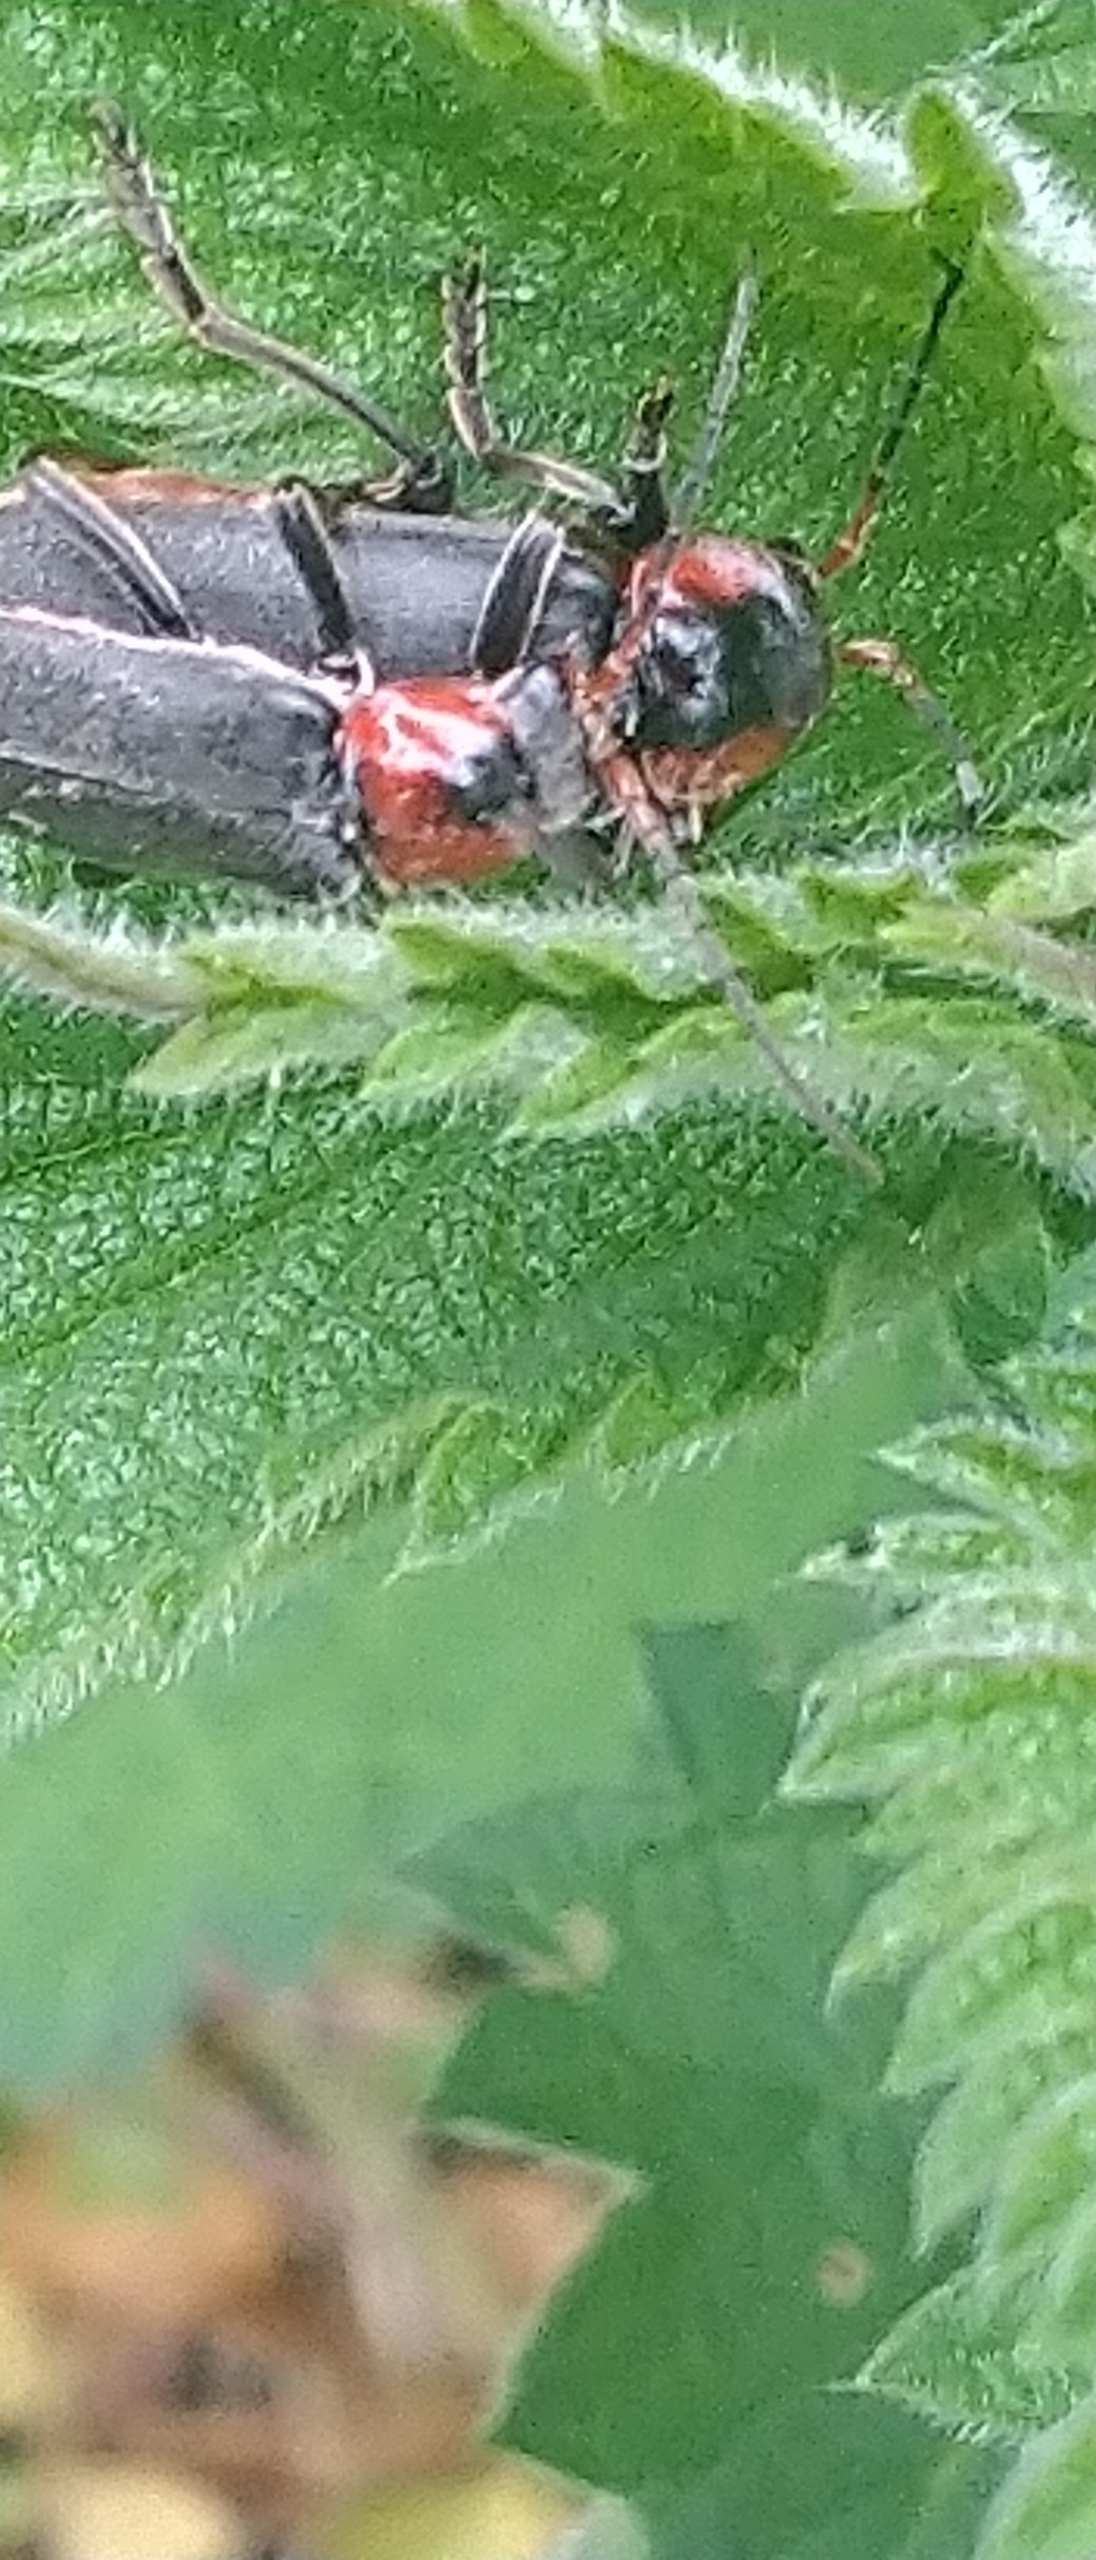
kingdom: Animalia
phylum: Arthropoda
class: Insecta
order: Coleoptera
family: Cantharidae
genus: Cantharis
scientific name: Cantharis fusca
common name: Stor blødvinge
